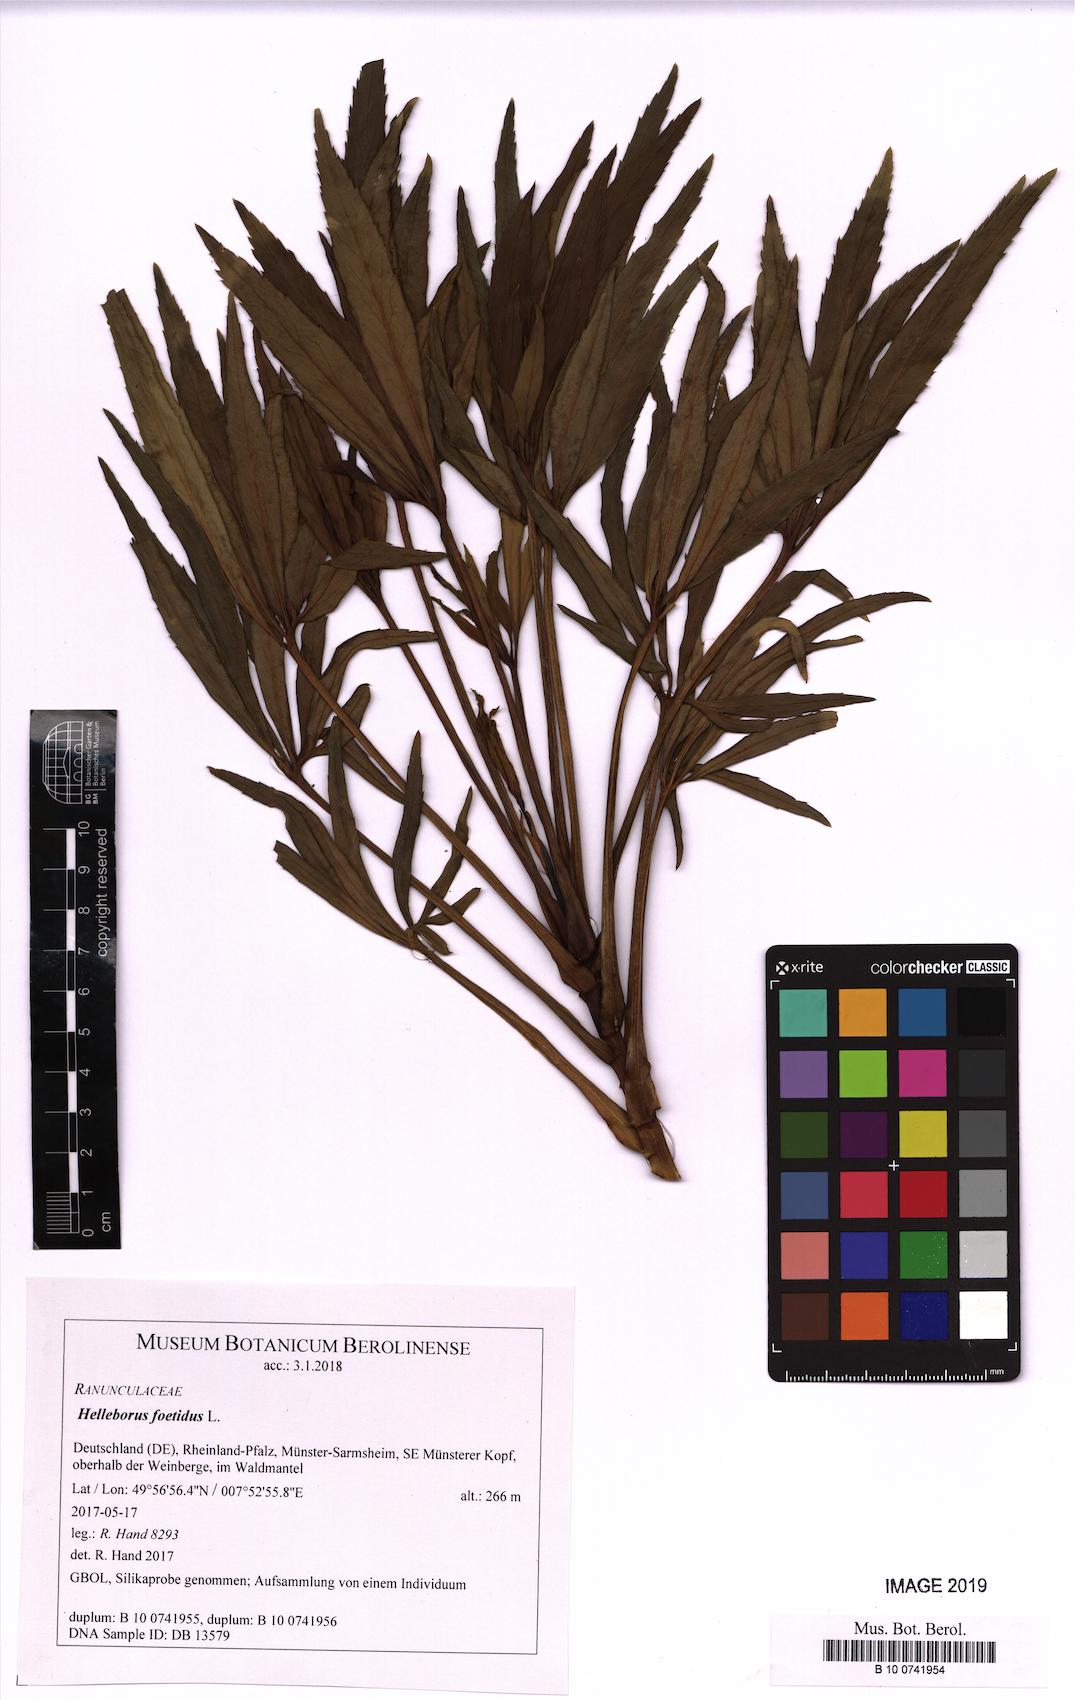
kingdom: Plantae
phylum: Tracheophyta
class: Magnoliopsida
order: Ranunculales
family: Ranunculaceae
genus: Helleborus
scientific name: Helleborus foetidus
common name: Stinking hellebore
